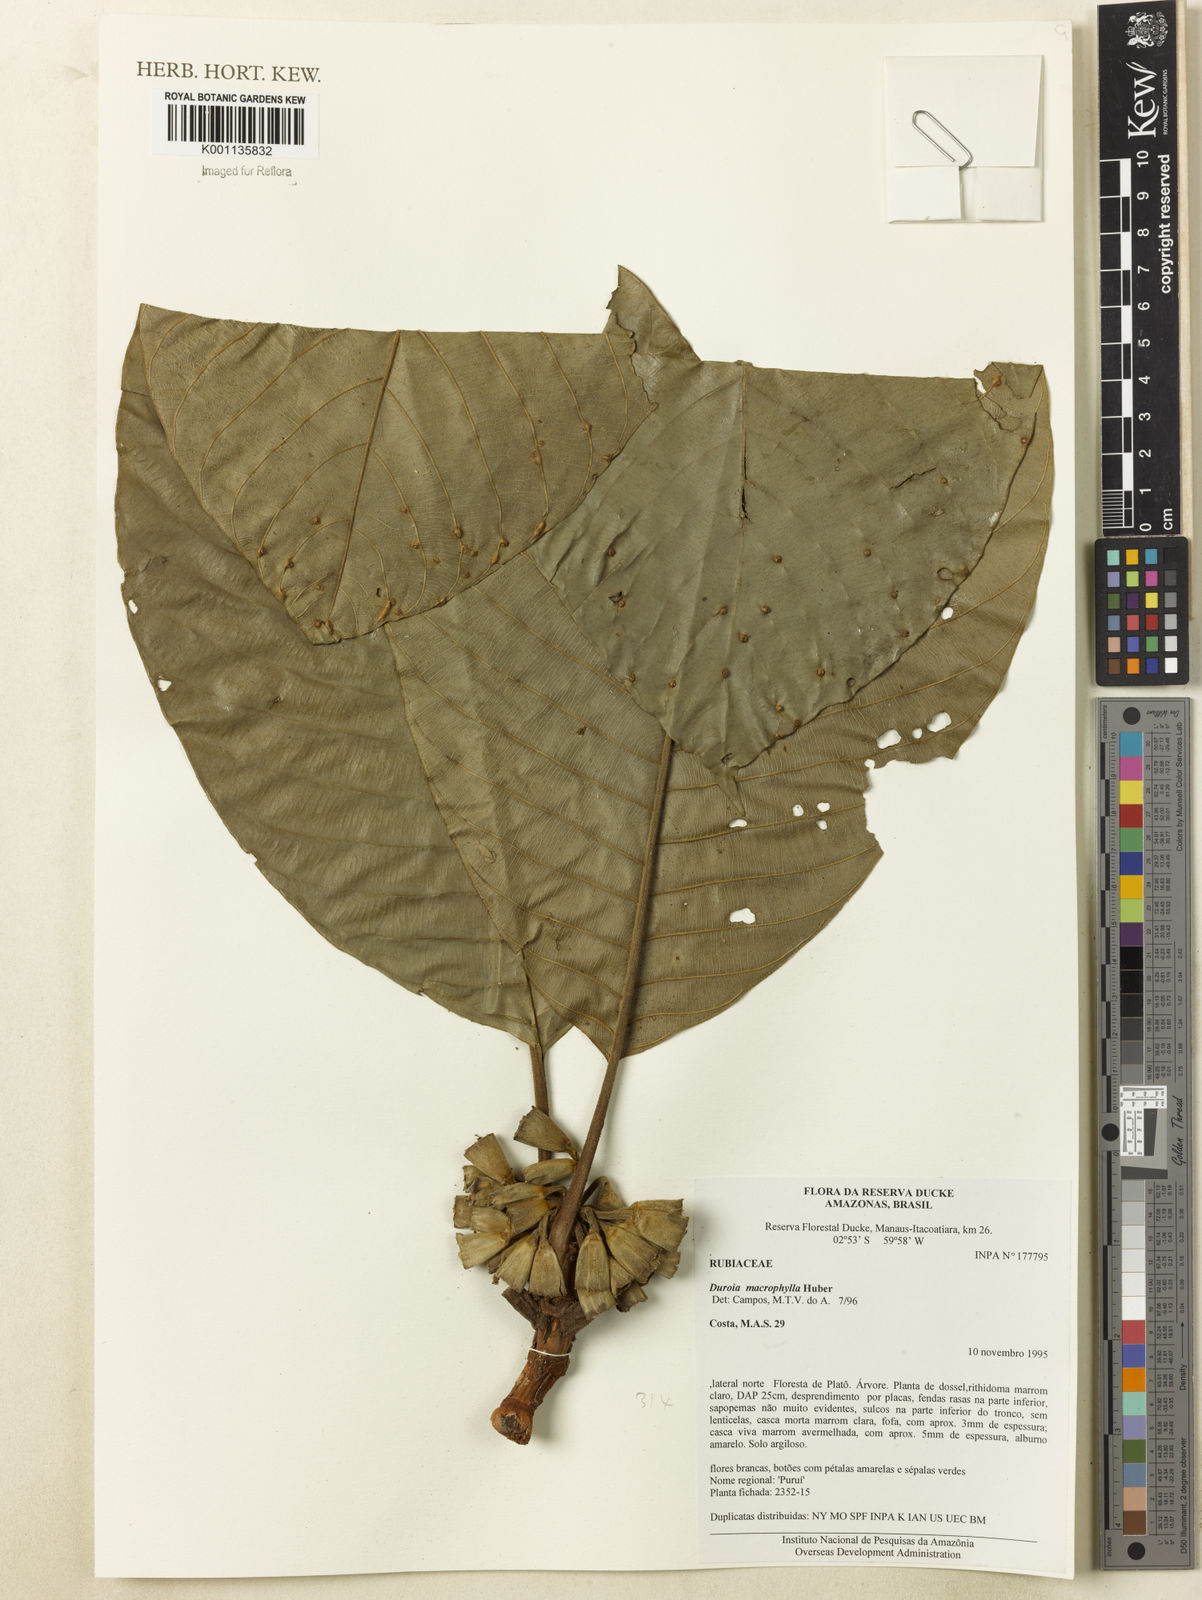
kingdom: Plantae
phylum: Tracheophyta
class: Magnoliopsida
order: Gentianales
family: Rubiaceae
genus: Duroia
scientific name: Duroia macrophylla
